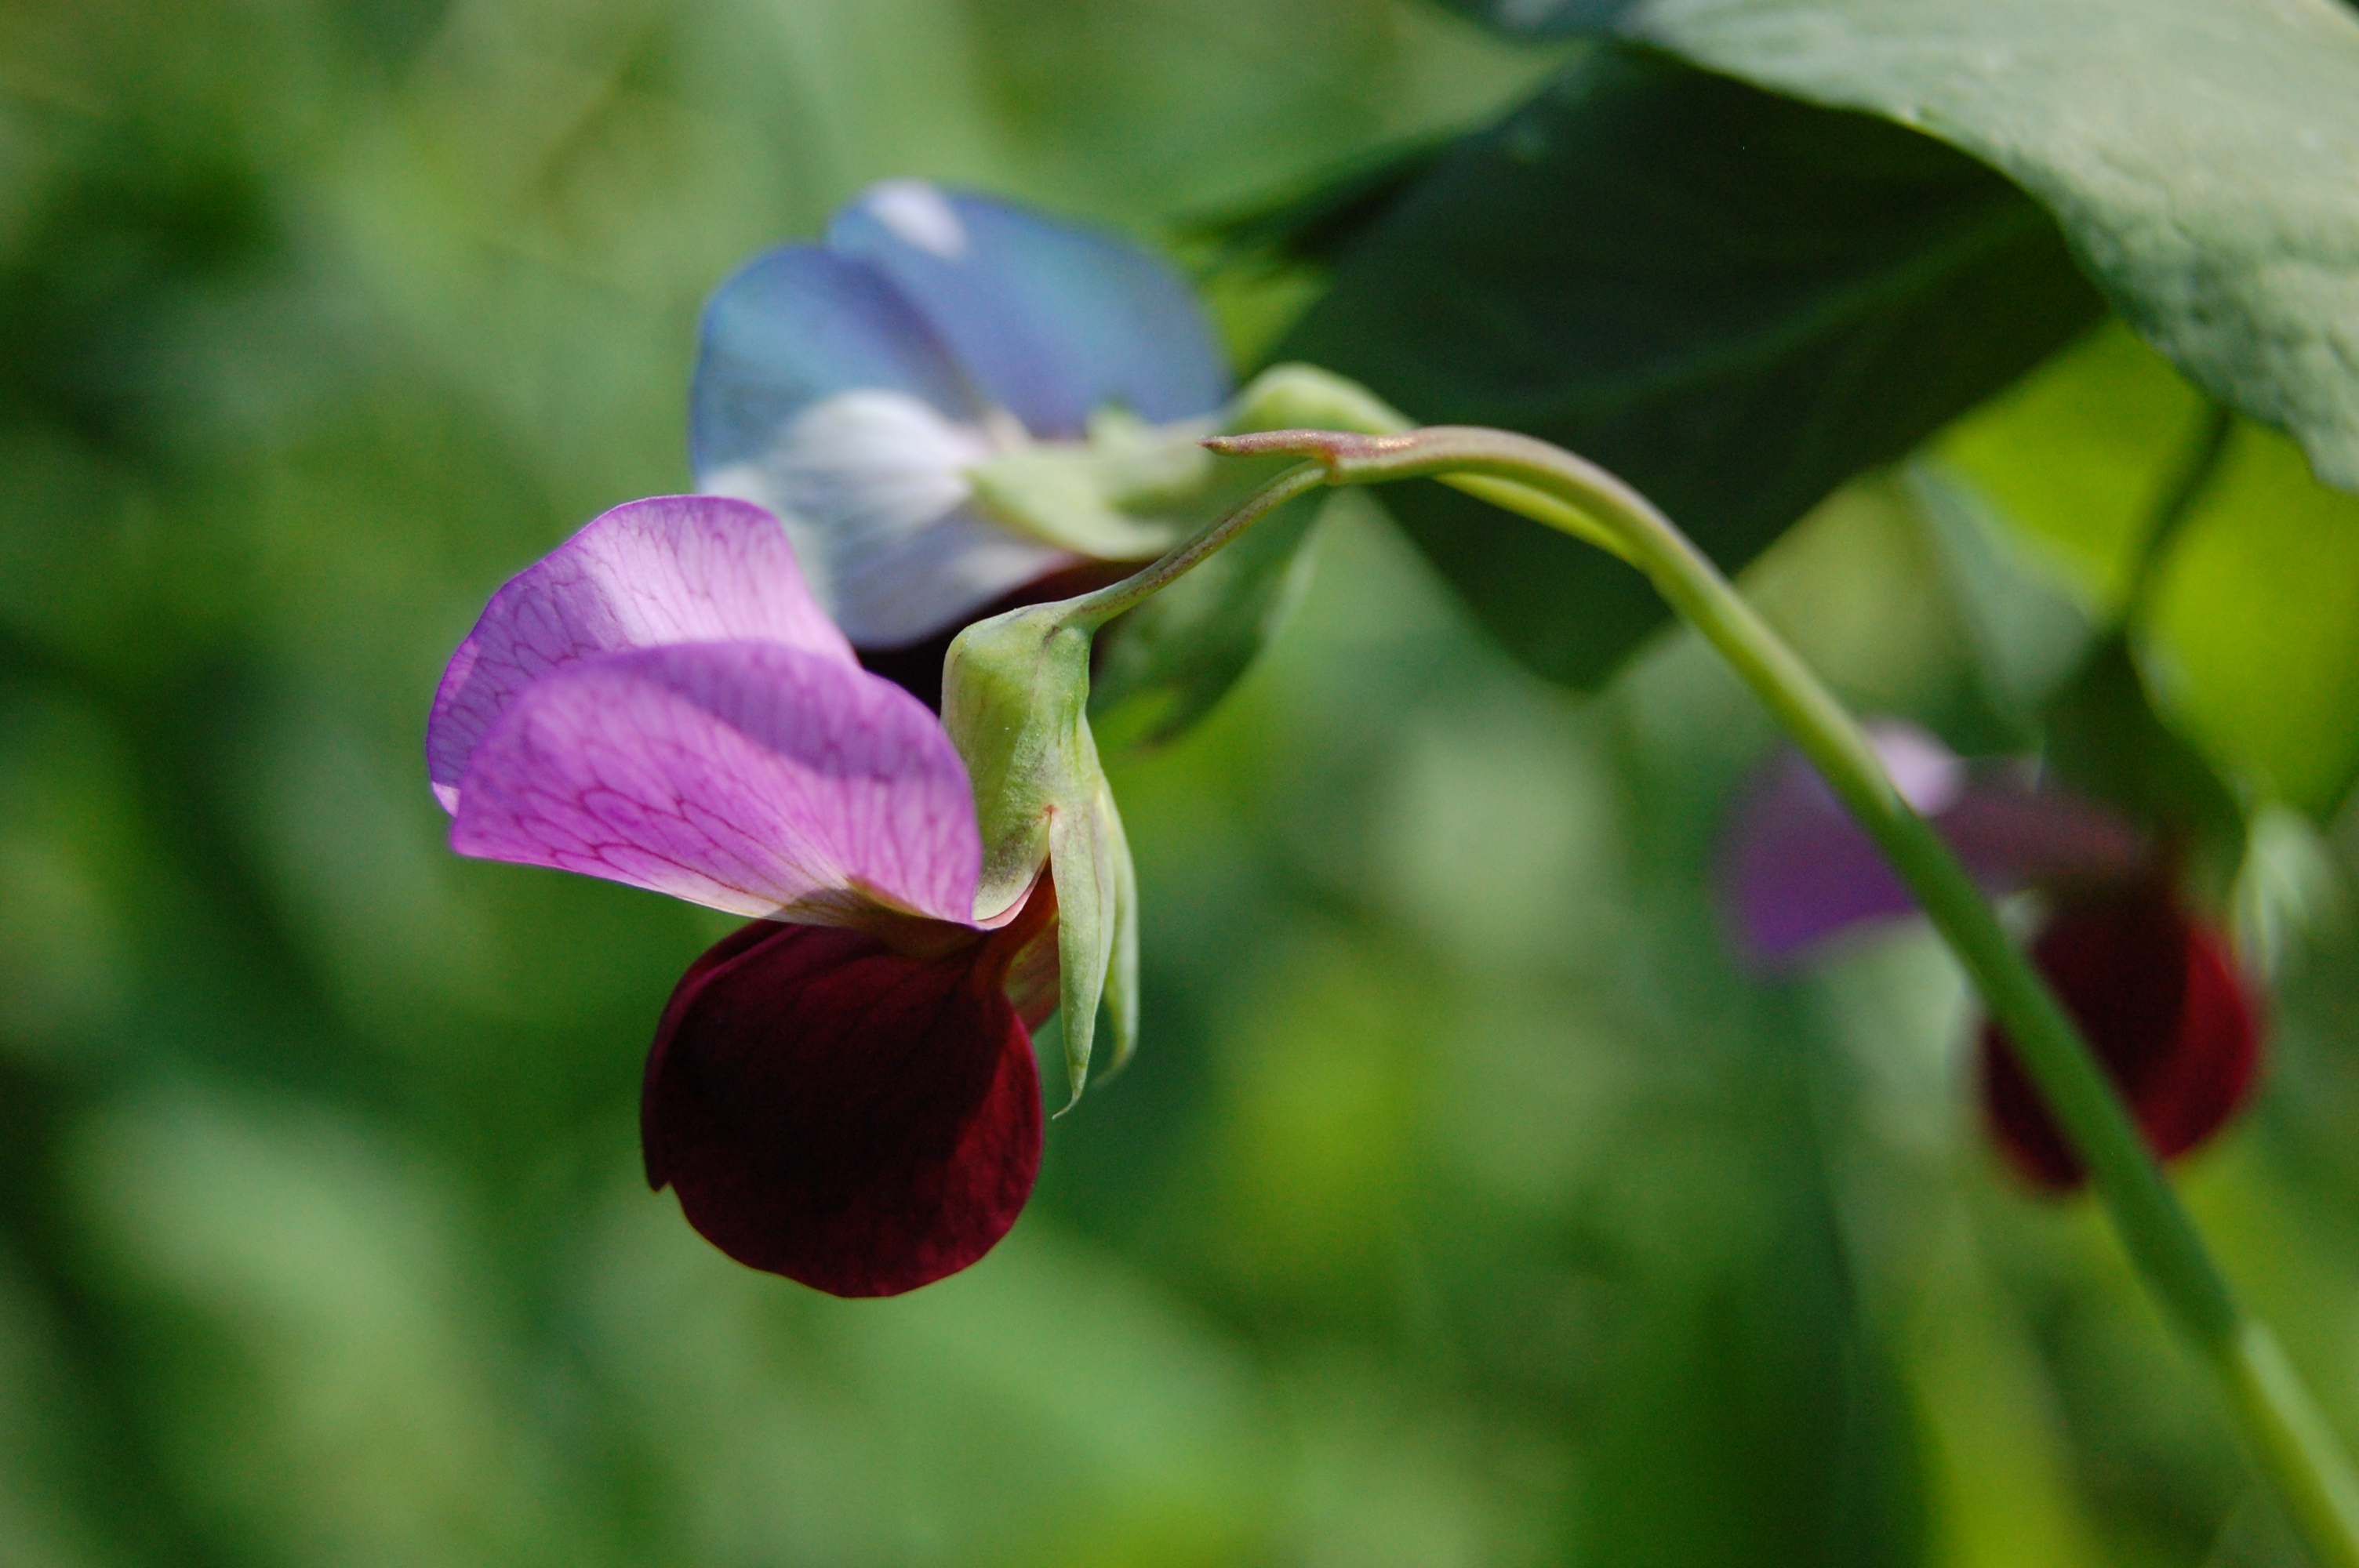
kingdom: Plantae
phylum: Tracheophyta
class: Magnoliopsida
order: Fabales
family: Fabaceae
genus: Lathyrus
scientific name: Lathyrus oleraceus
